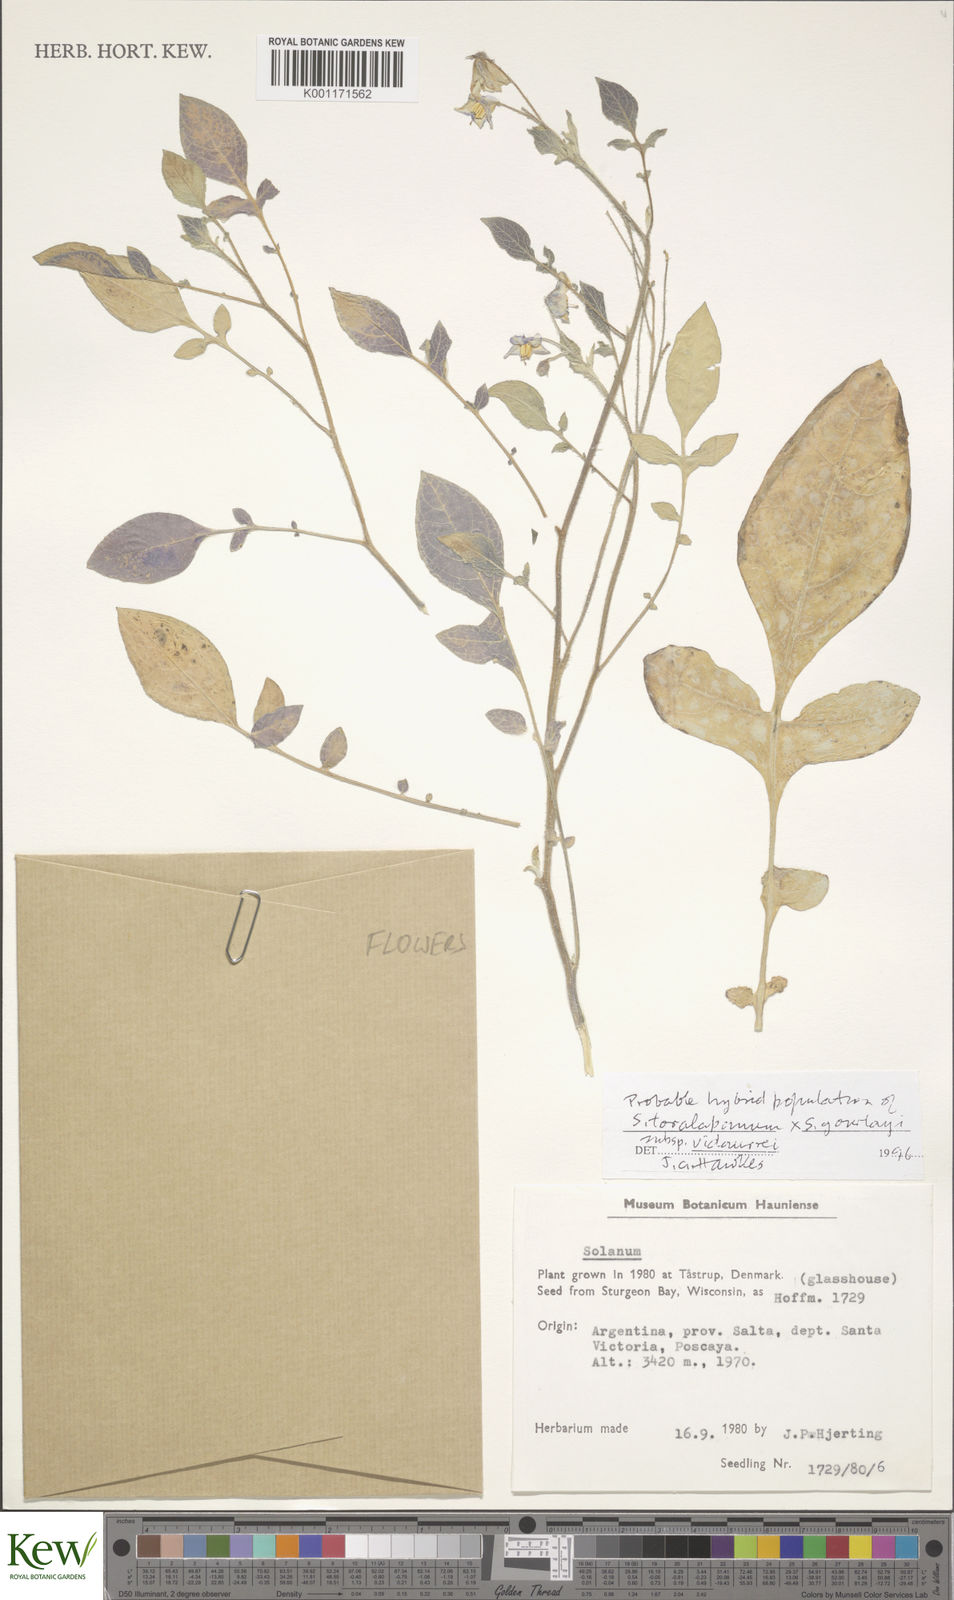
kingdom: Plantae
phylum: Tracheophyta
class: Magnoliopsida
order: Solanales
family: Solanaceae
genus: Solanum
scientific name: Solanum brevicaule
